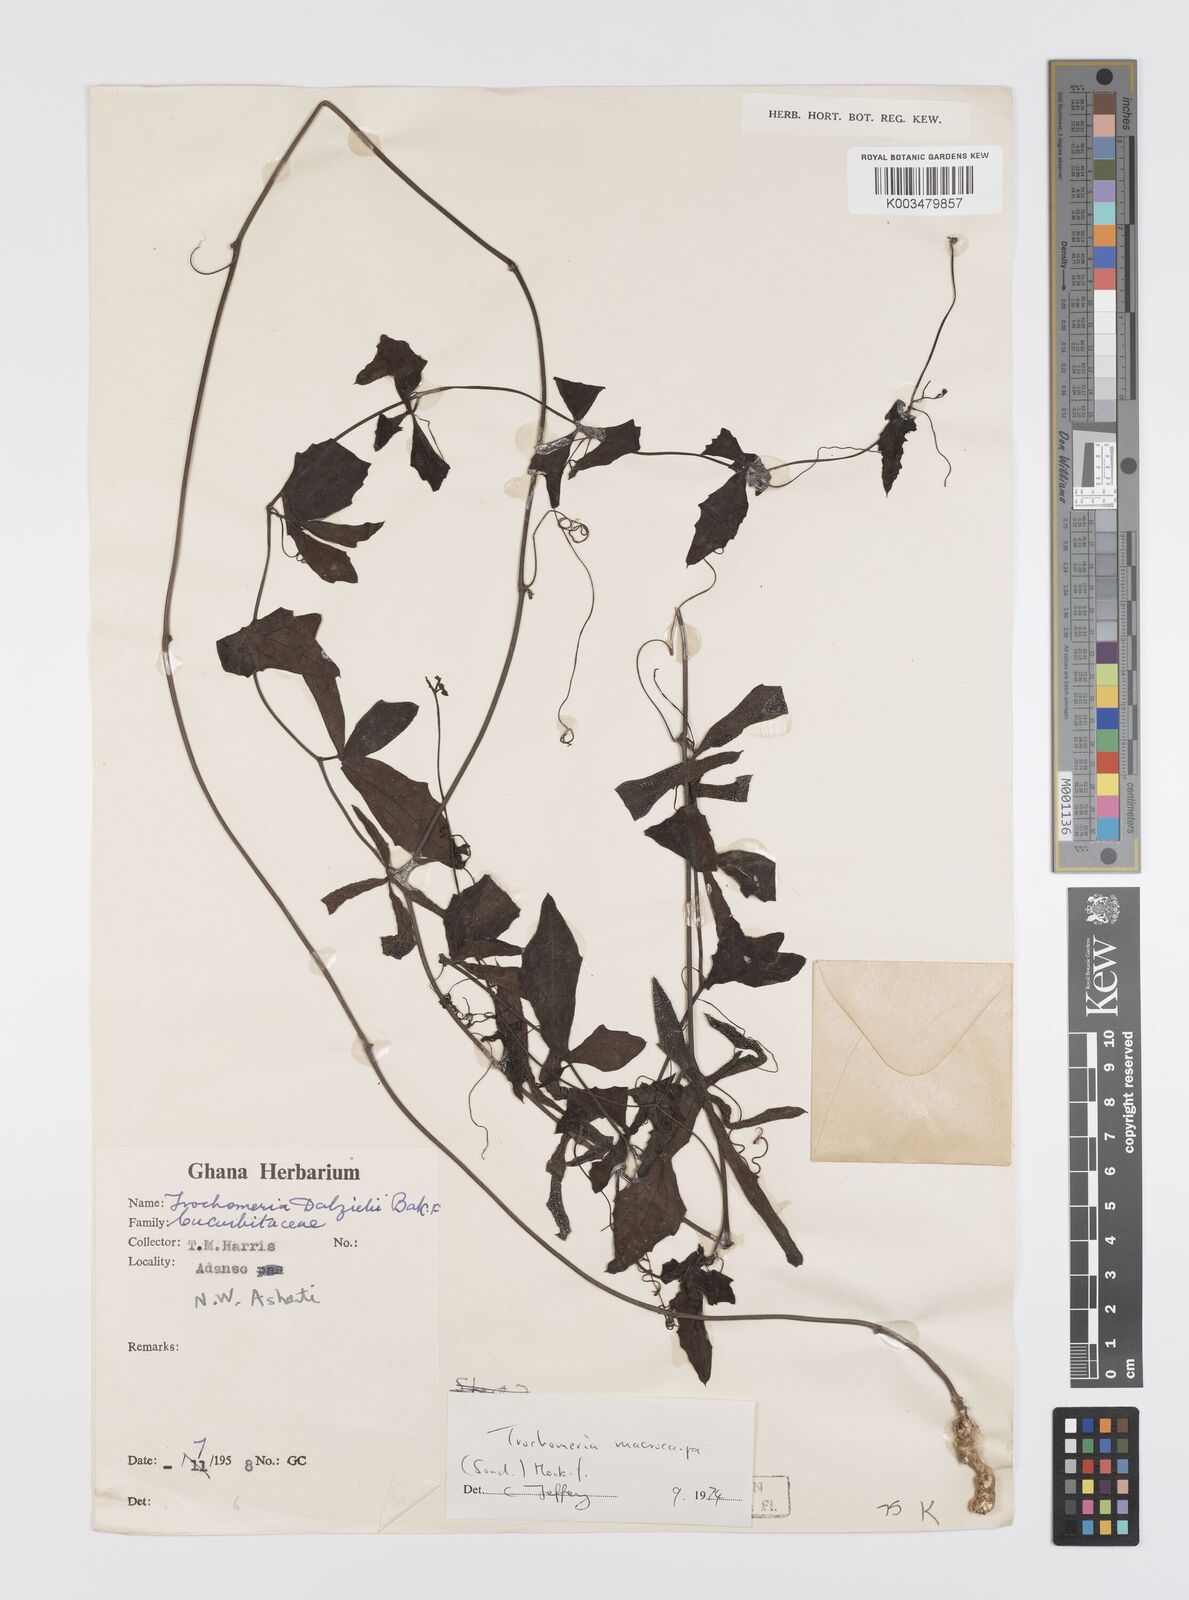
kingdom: Plantae
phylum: Tracheophyta
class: Magnoliopsida
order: Cucurbitales
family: Cucurbitaceae
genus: Trochomeria
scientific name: Trochomeria macrocarpa
